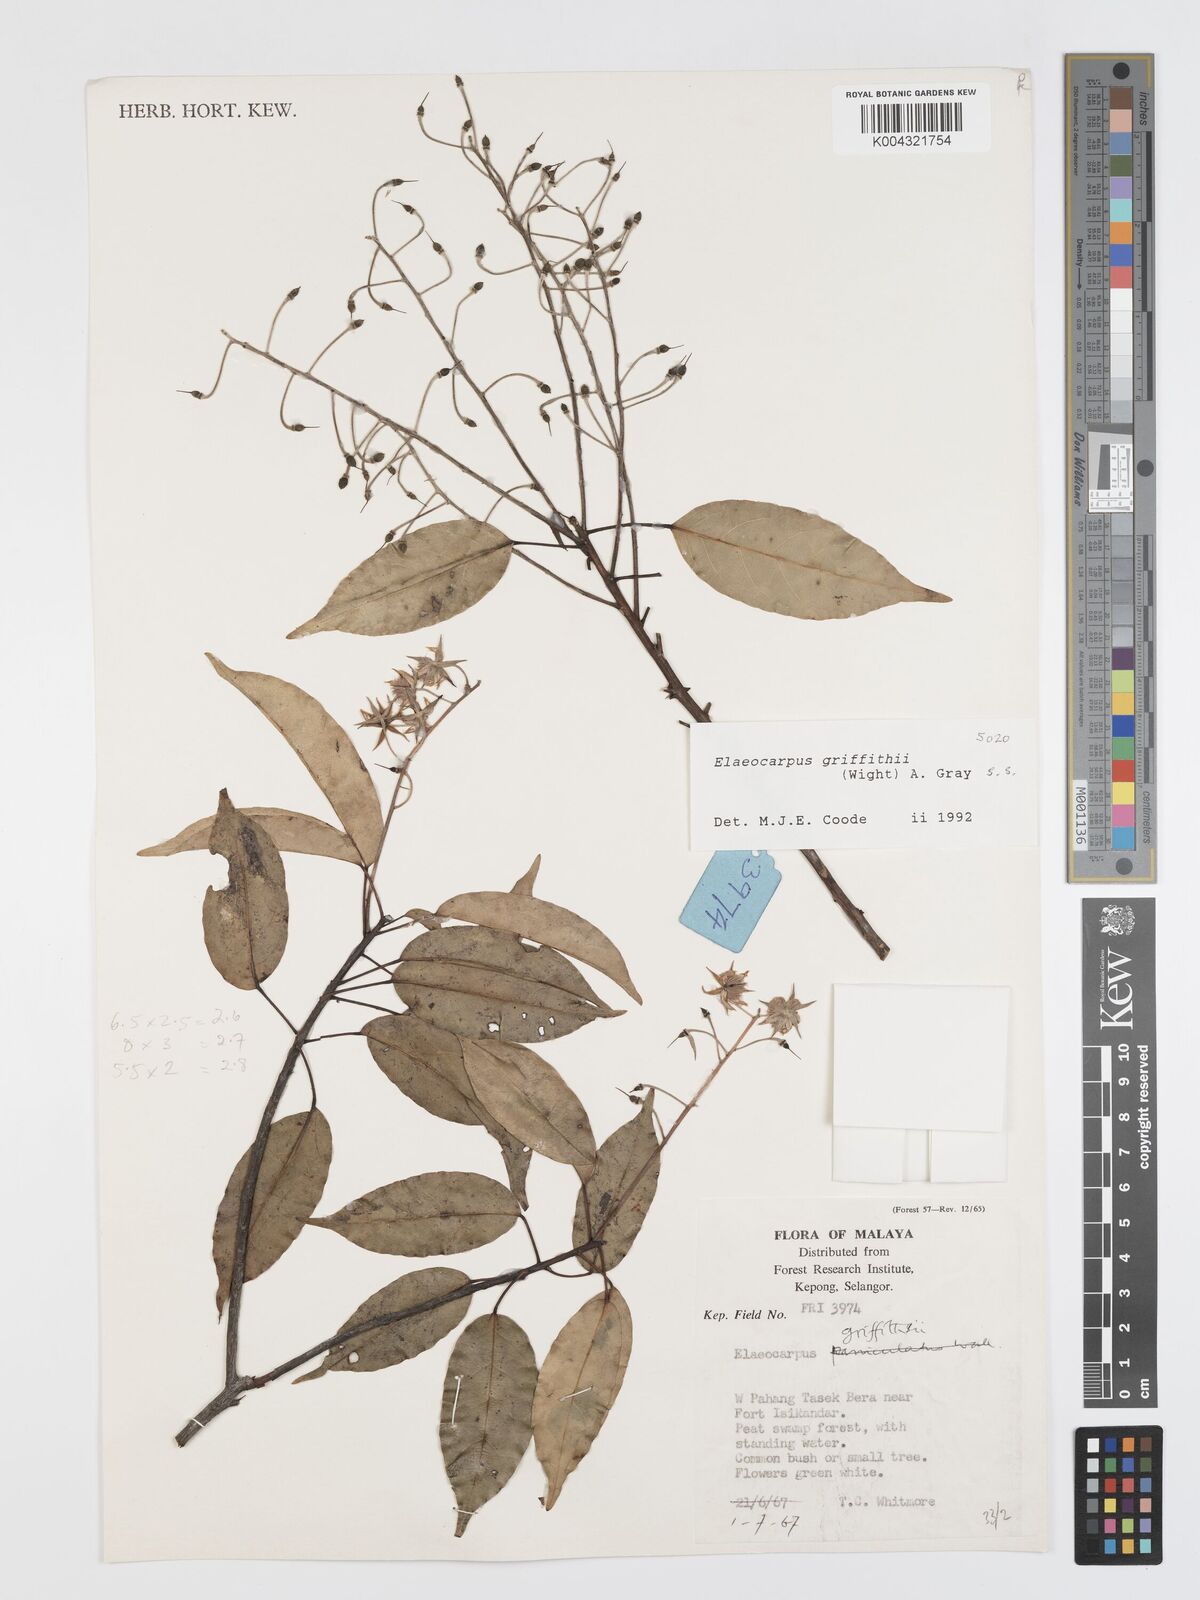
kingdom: Plantae
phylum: Tracheophyta
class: Magnoliopsida
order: Oxalidales
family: Elaeocarpaceae
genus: Elaeocarpus
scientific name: Elaeocarpus griffithii
